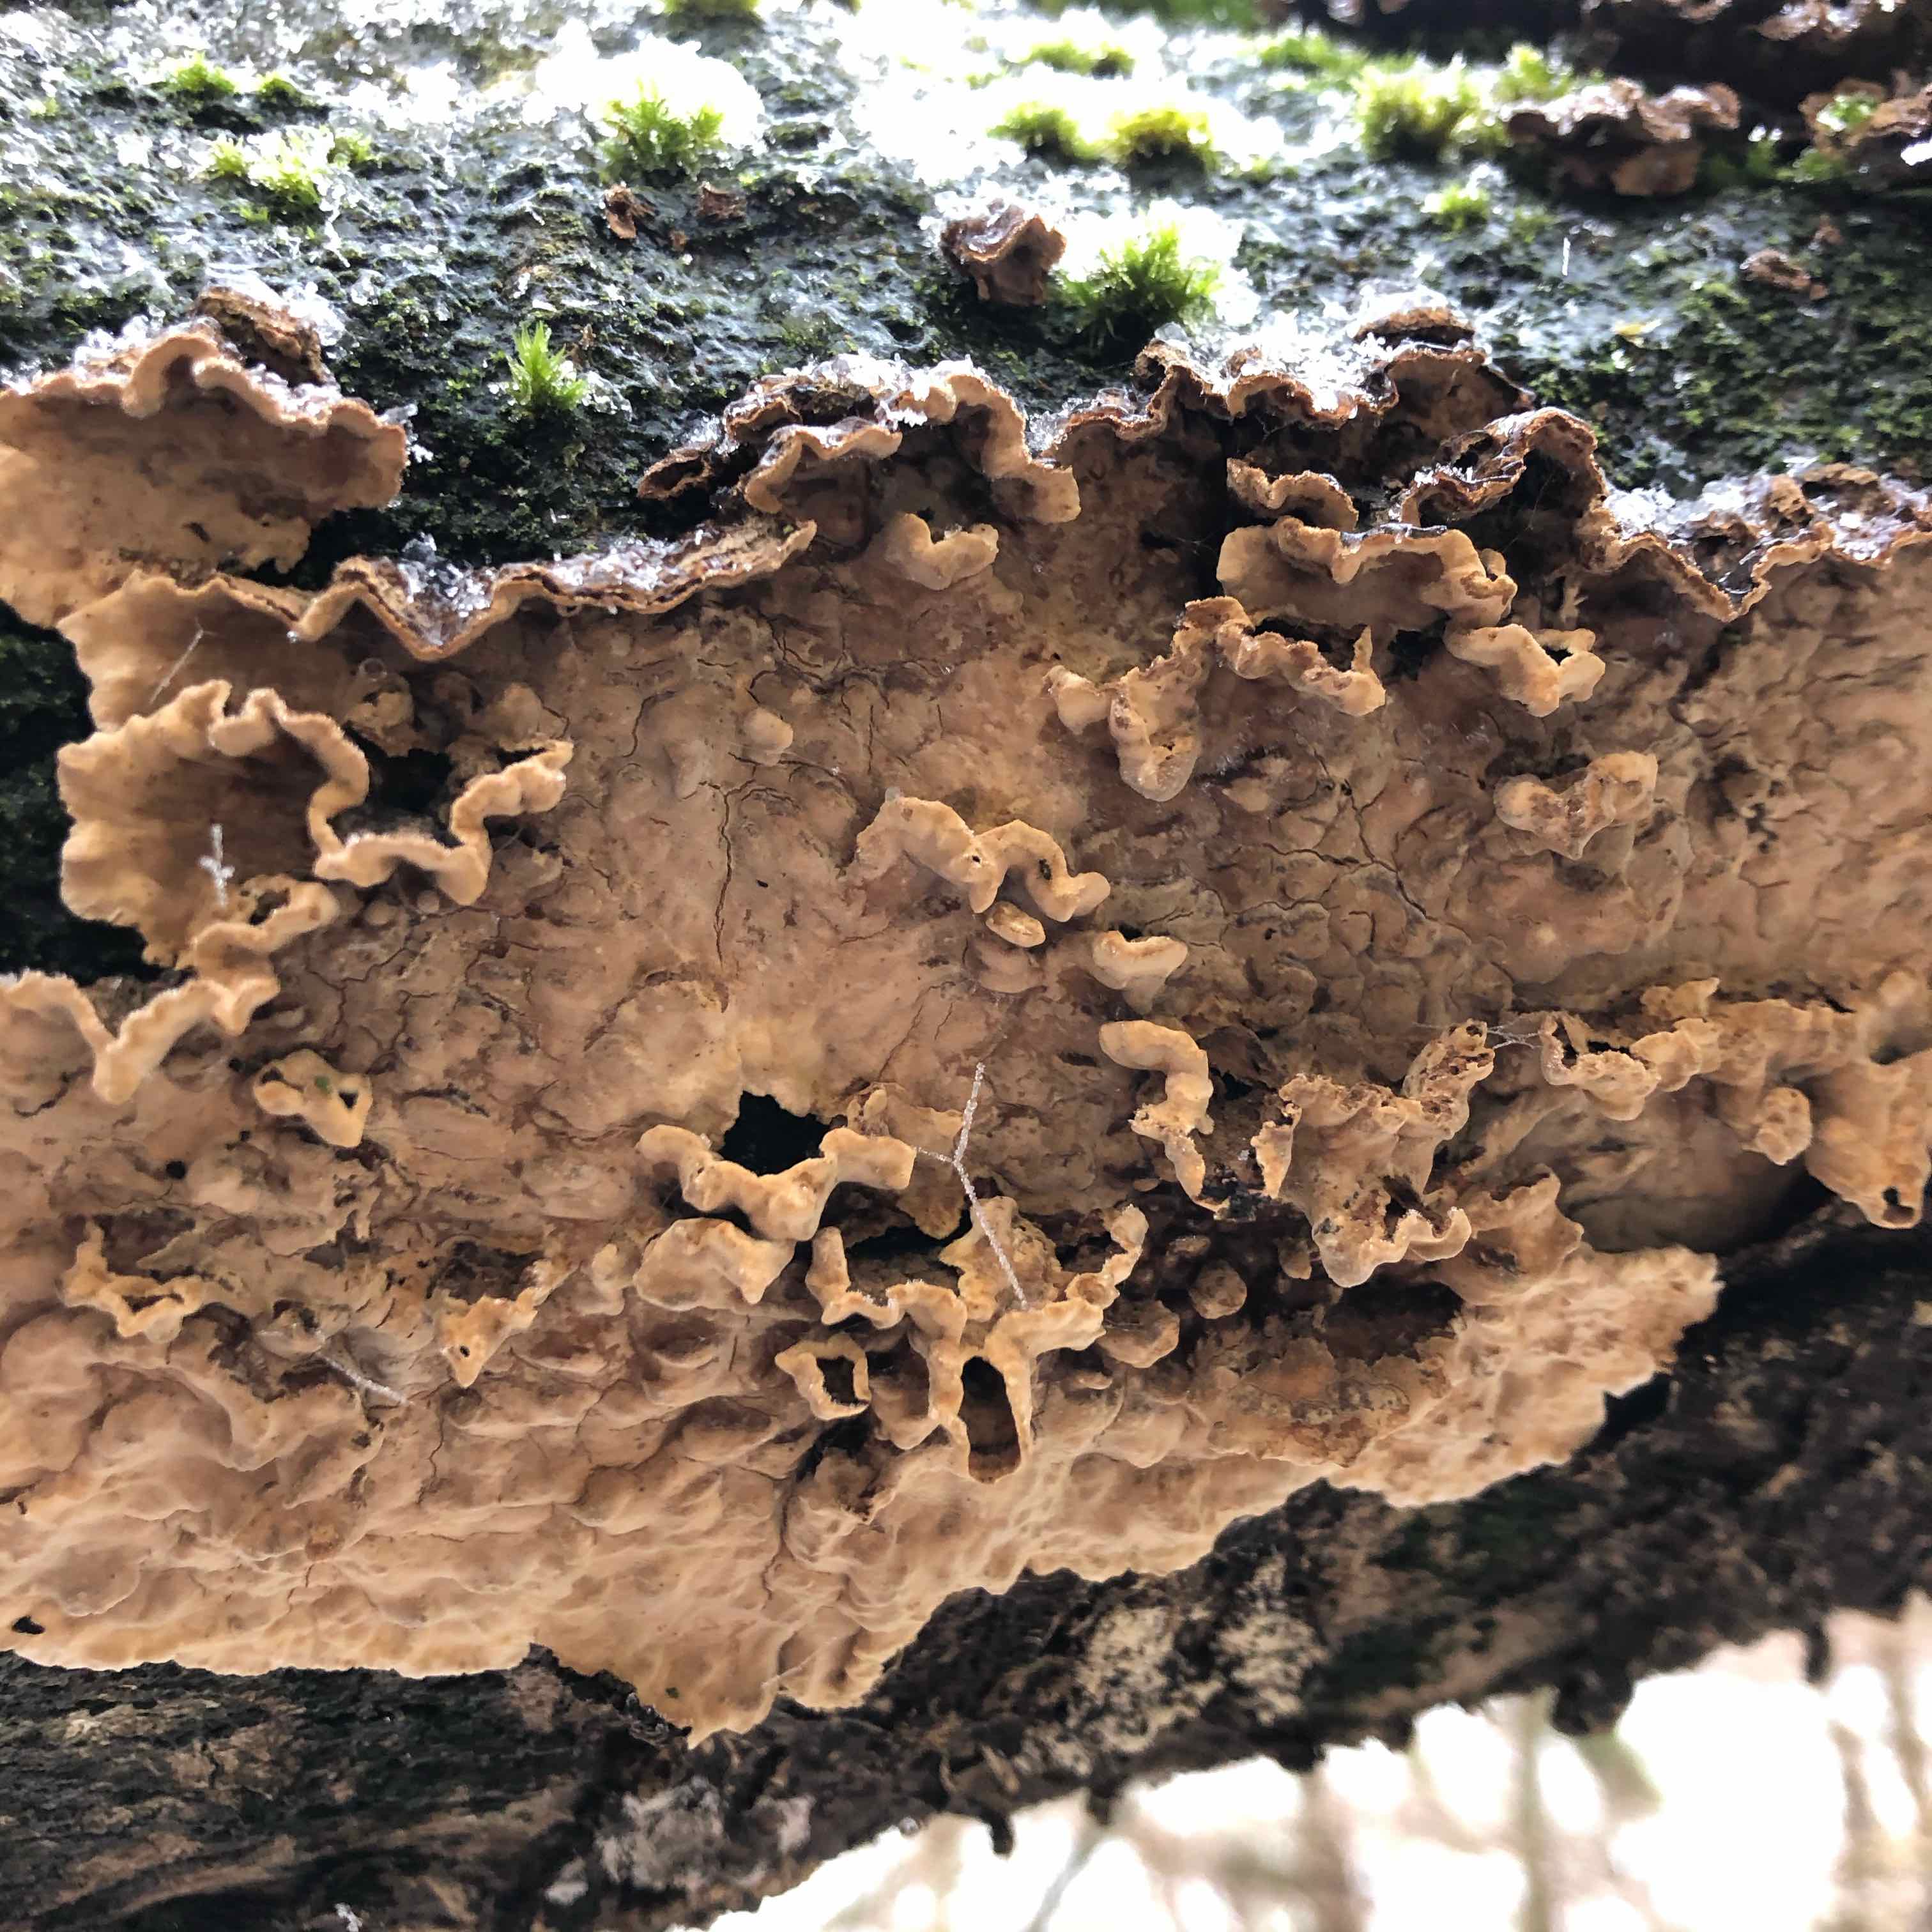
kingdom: Fungi
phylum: Basidiomycota
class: Agaricomycetes
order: Russulales
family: Stereaceae
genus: Stereum
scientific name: Stereum
